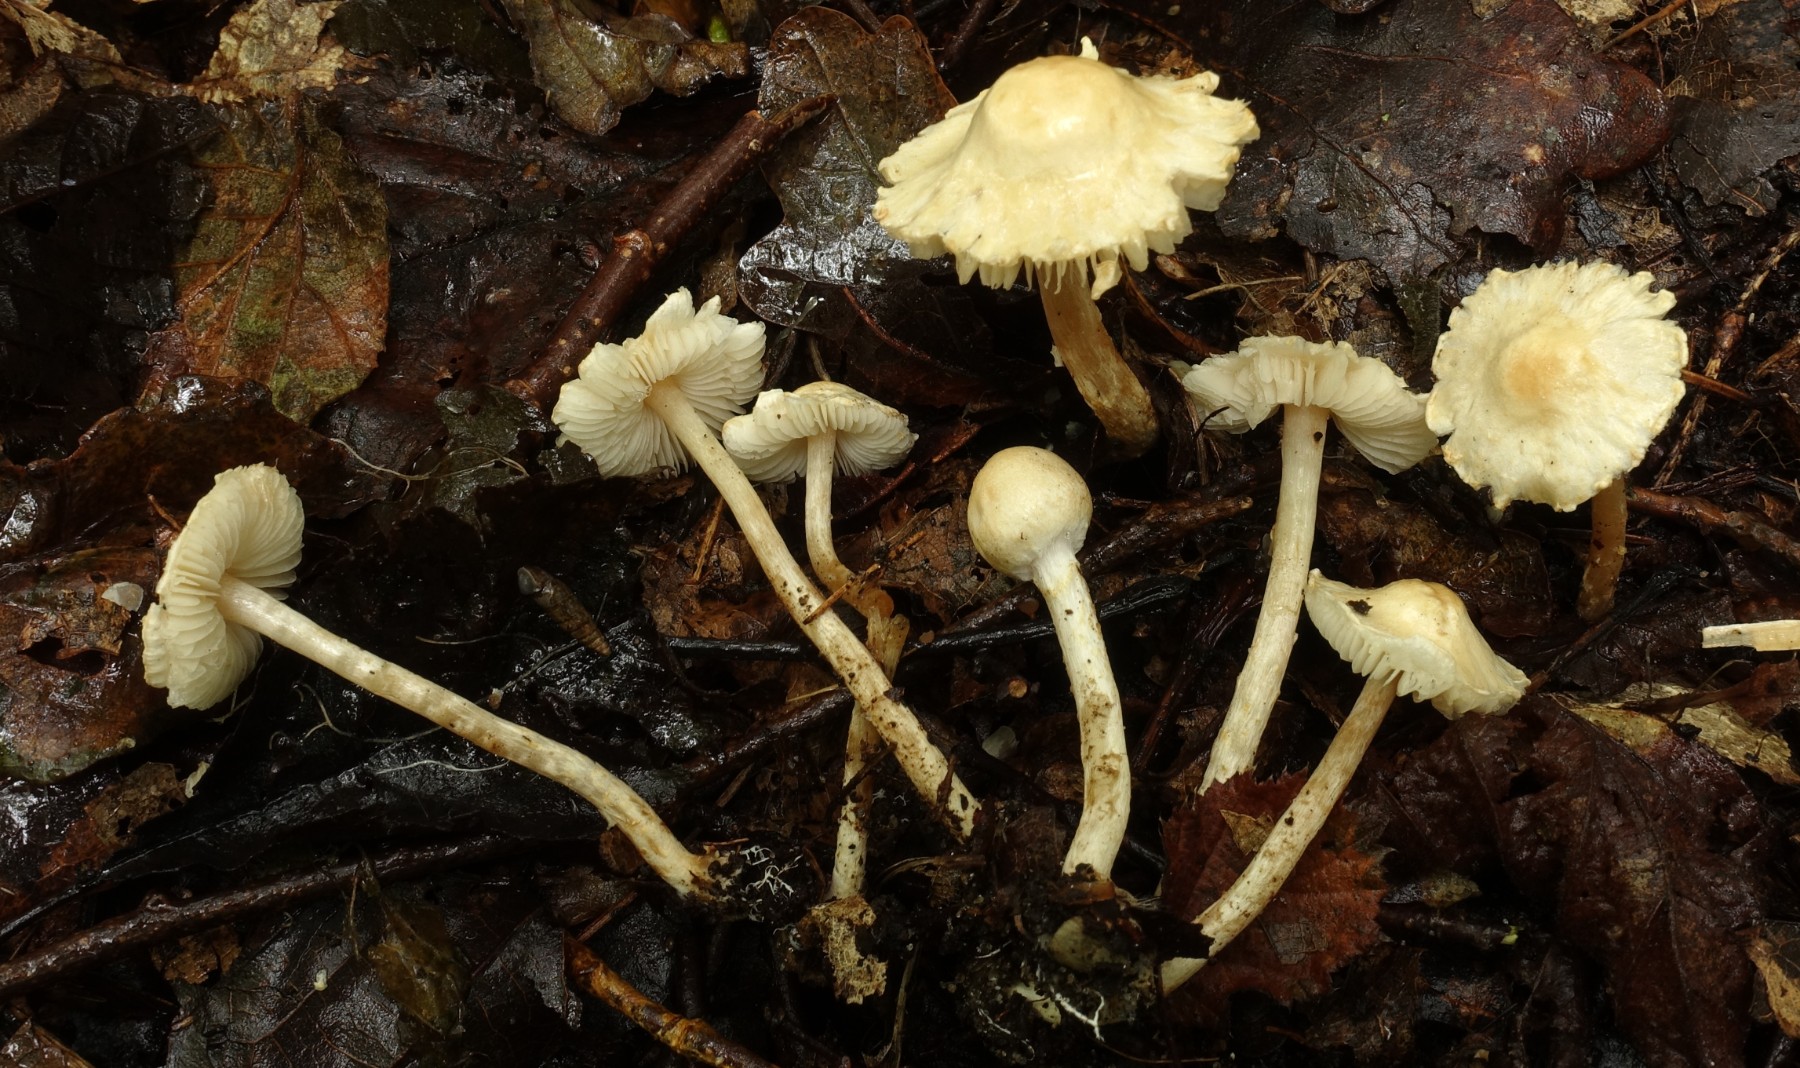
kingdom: Fungi
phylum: Basidiomycota
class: Agaricomycetes
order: Agaricales
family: Agaricaceae
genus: Lepiota
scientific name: Lepiota subalba
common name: hvidlig parasolhat
